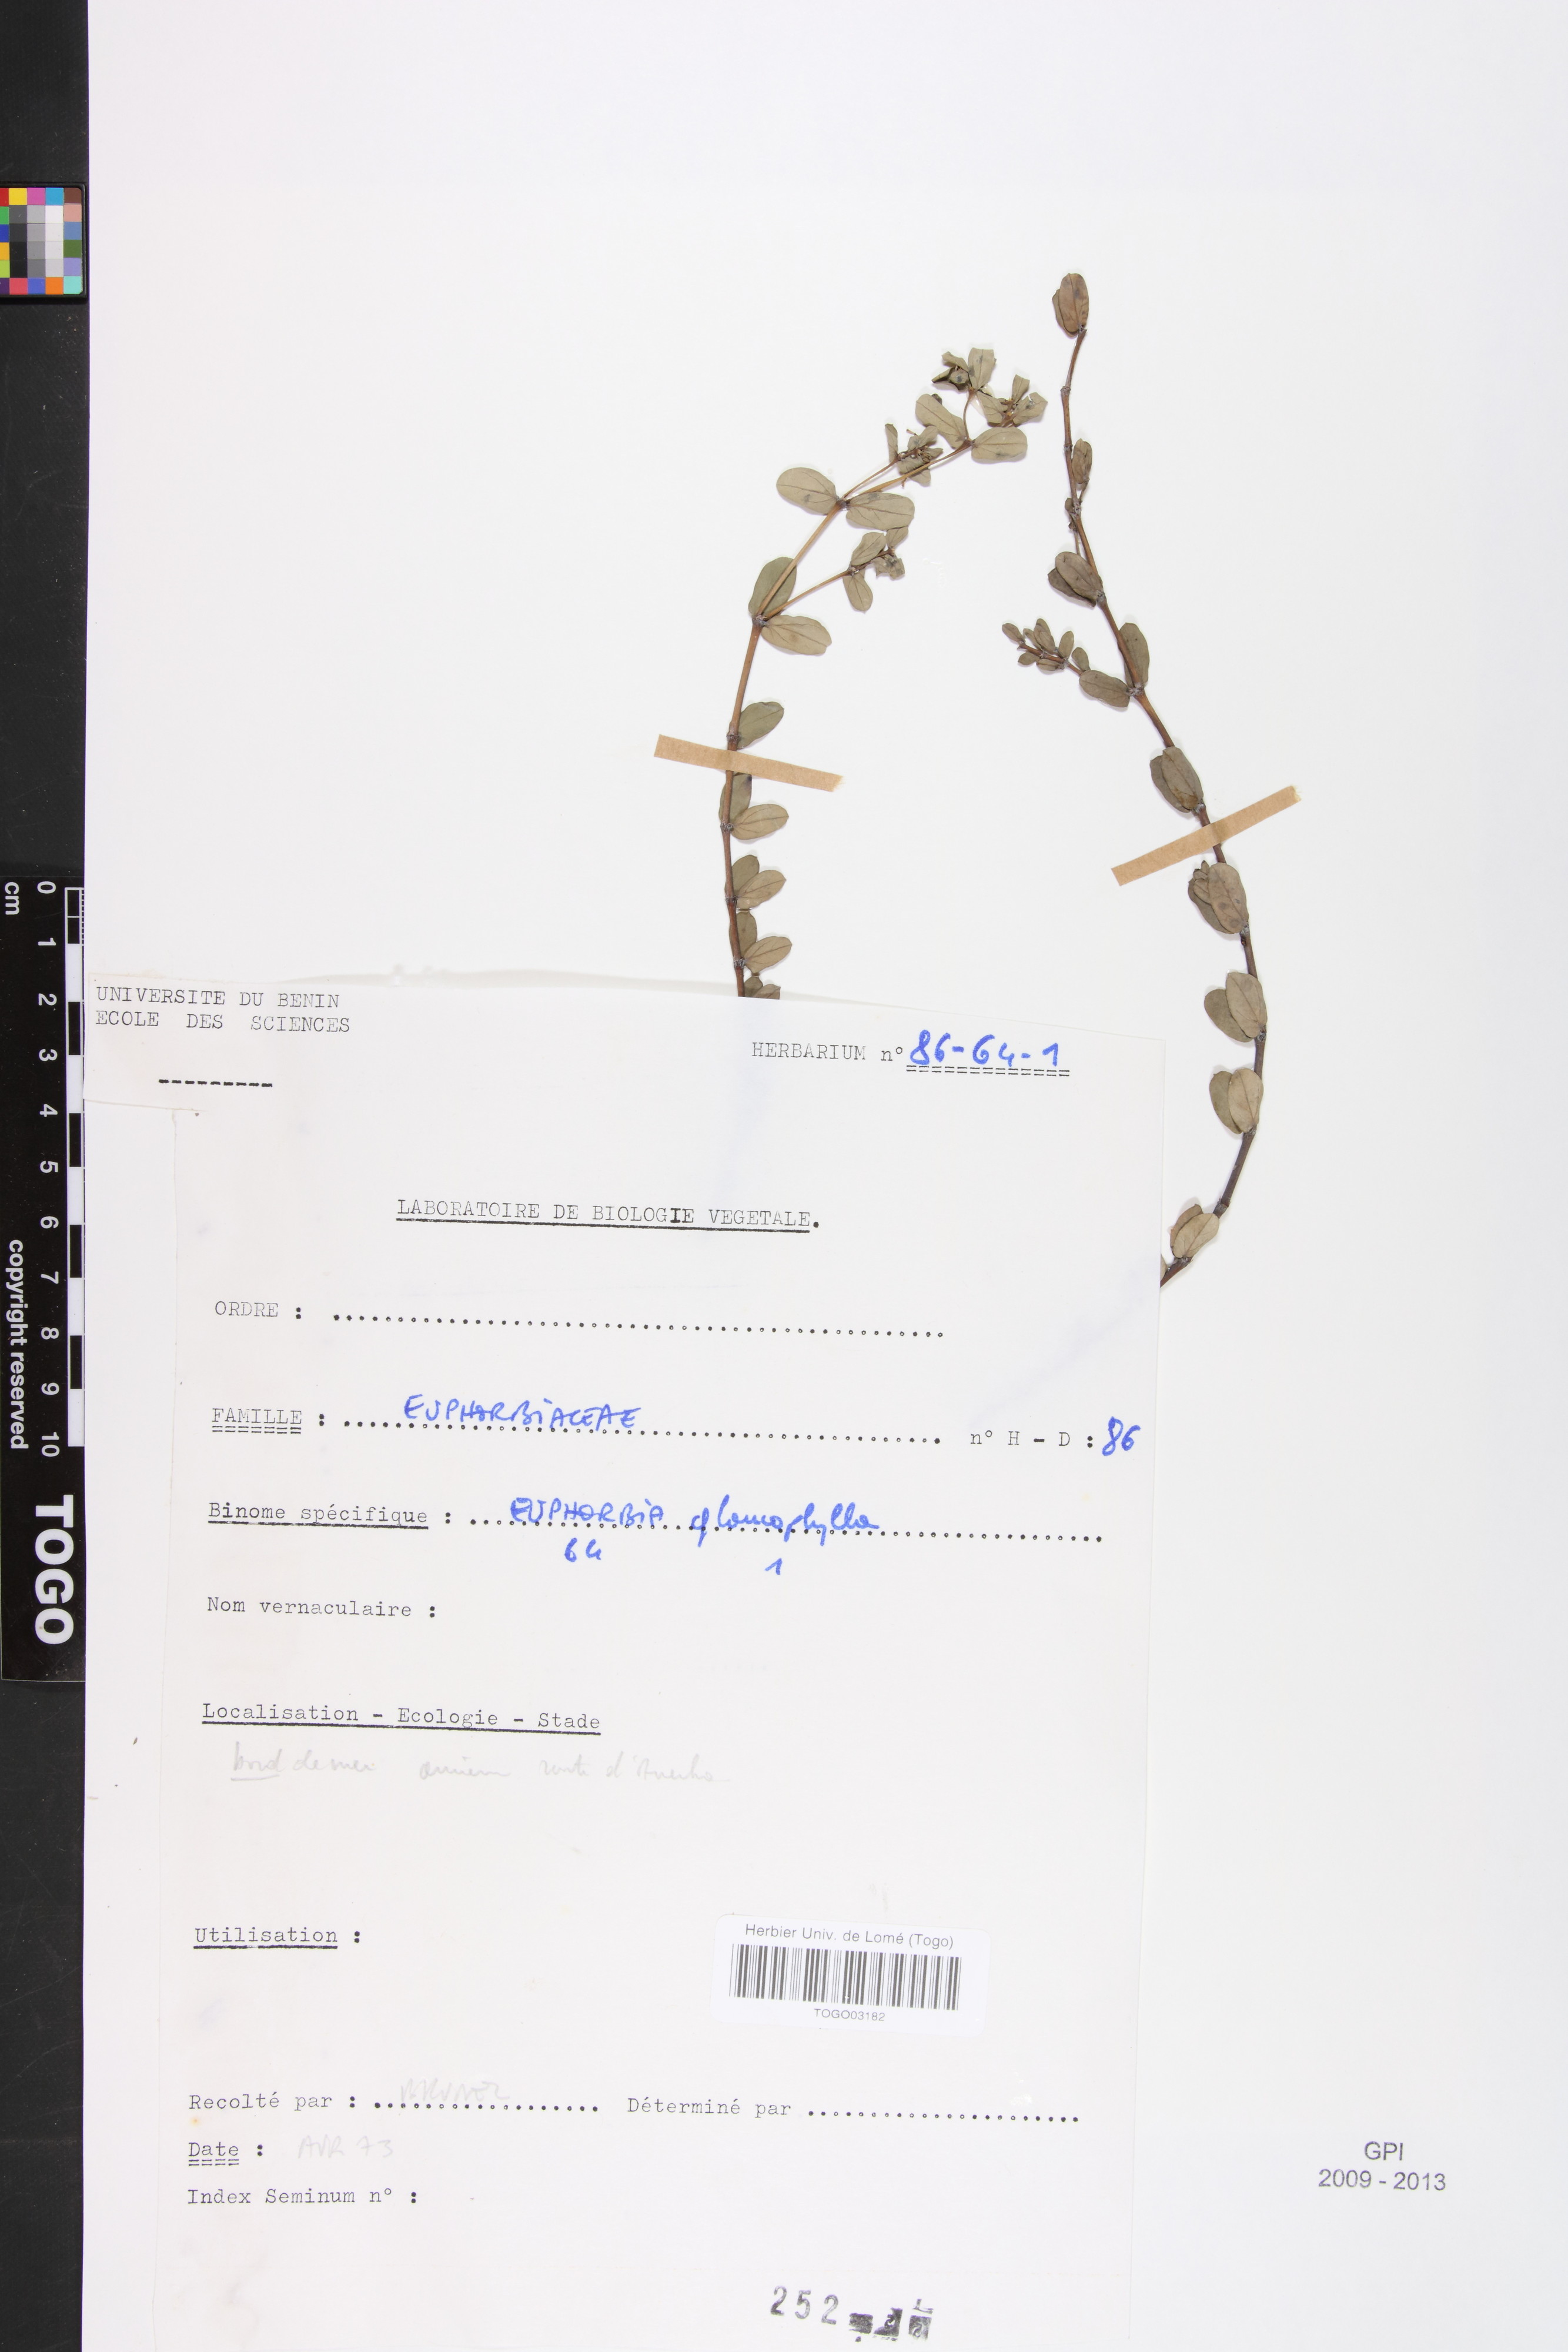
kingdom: Plantae
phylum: Tracheophyta
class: Magnoliopsida
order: Malpighiales
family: Euphorbiaceae
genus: Euphorbia
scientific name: Euphorbia glaucophylla
